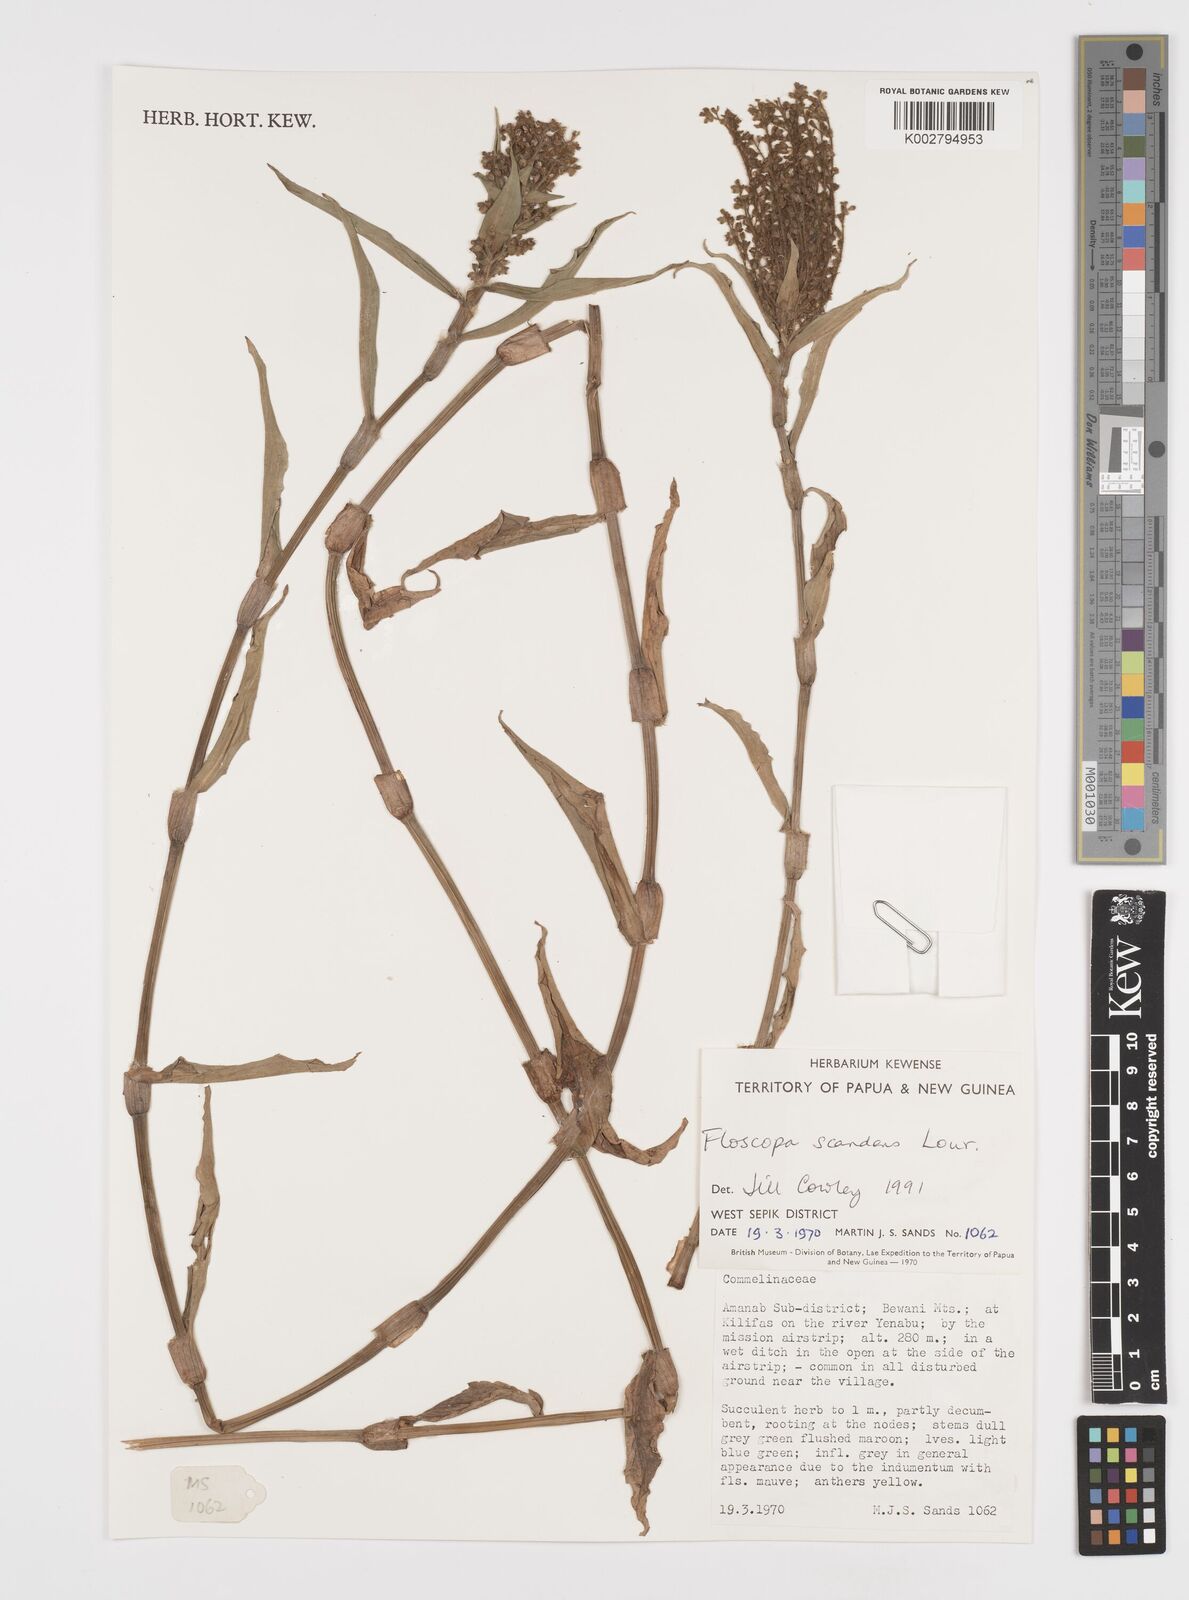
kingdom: Plantae
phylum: Tracheophyta
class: Liliopsida
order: Commelinales
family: Commelinaceae
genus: Floscopa
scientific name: Floscopa scandens
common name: Climbing flower cup
